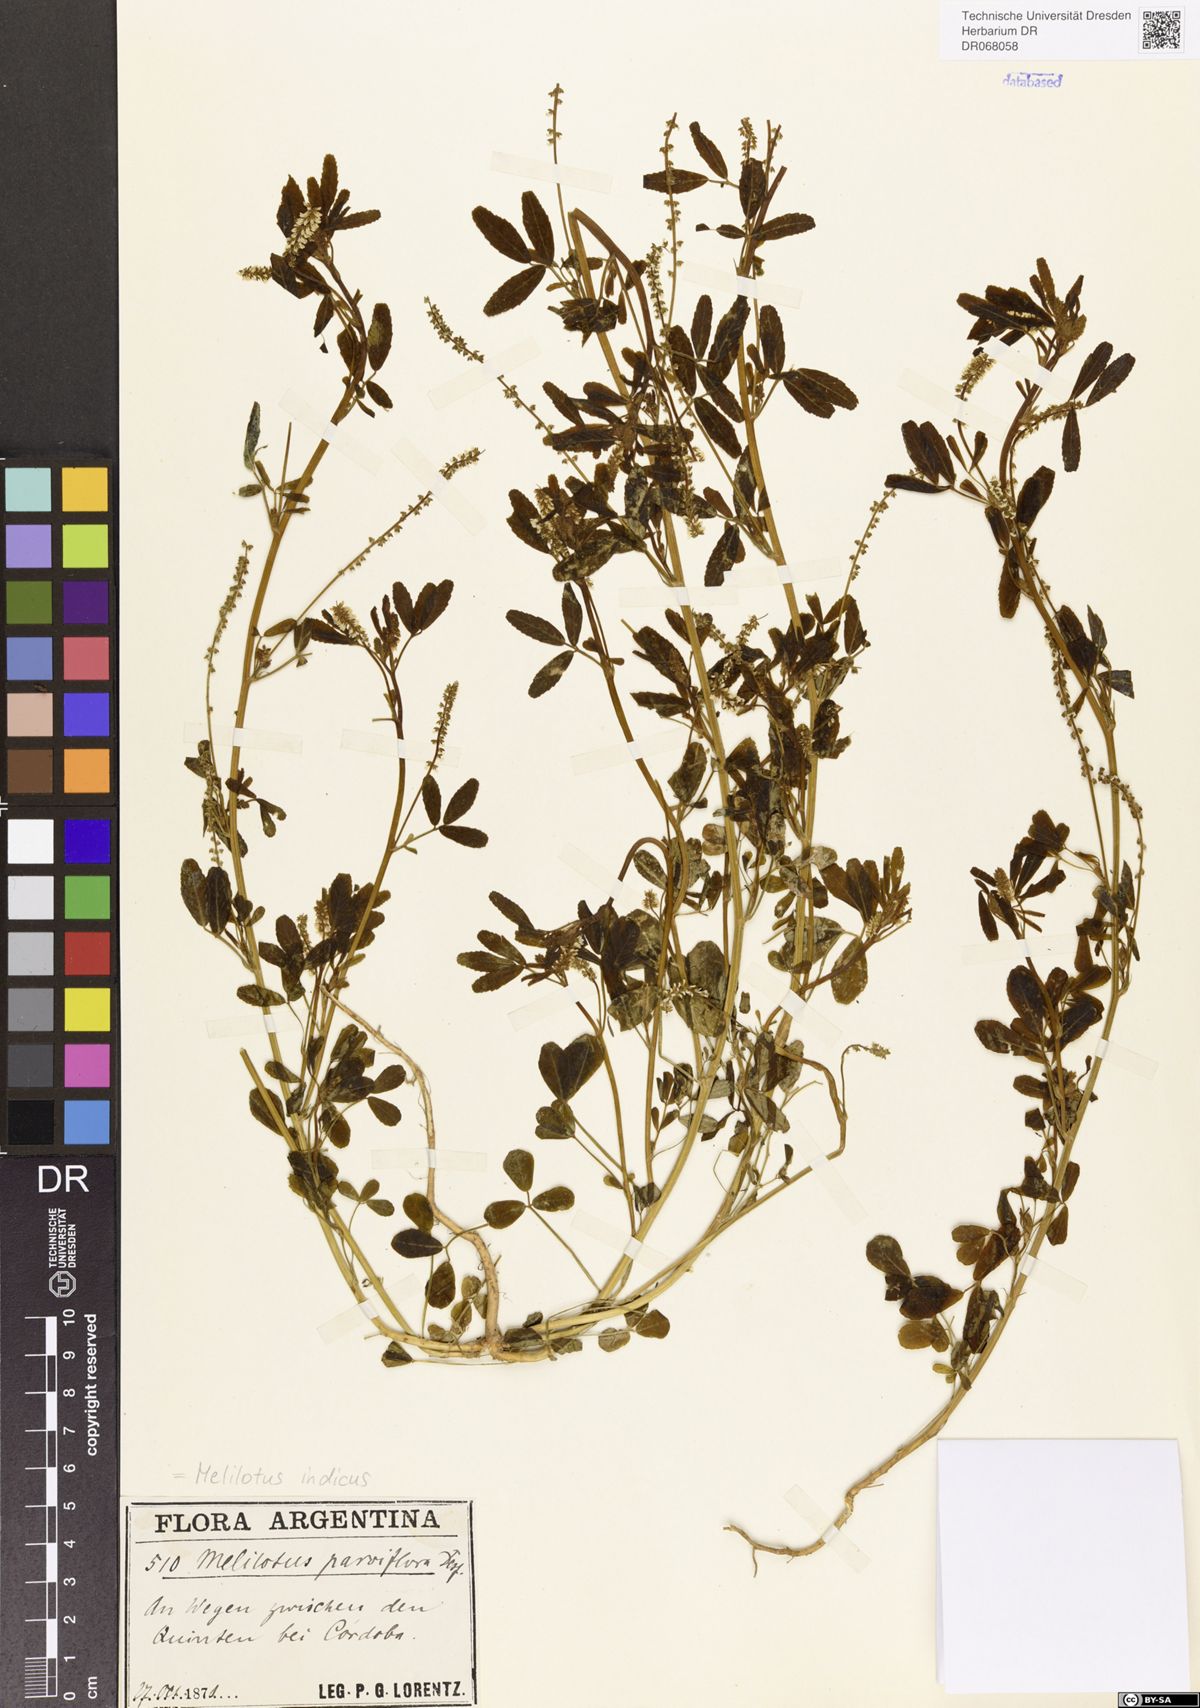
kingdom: Plantae
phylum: Tracheophyta
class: Magnoliopsida
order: Fabales
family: Fabaceae
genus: Melilotus
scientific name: Melilotus indicus
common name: Small melilot
